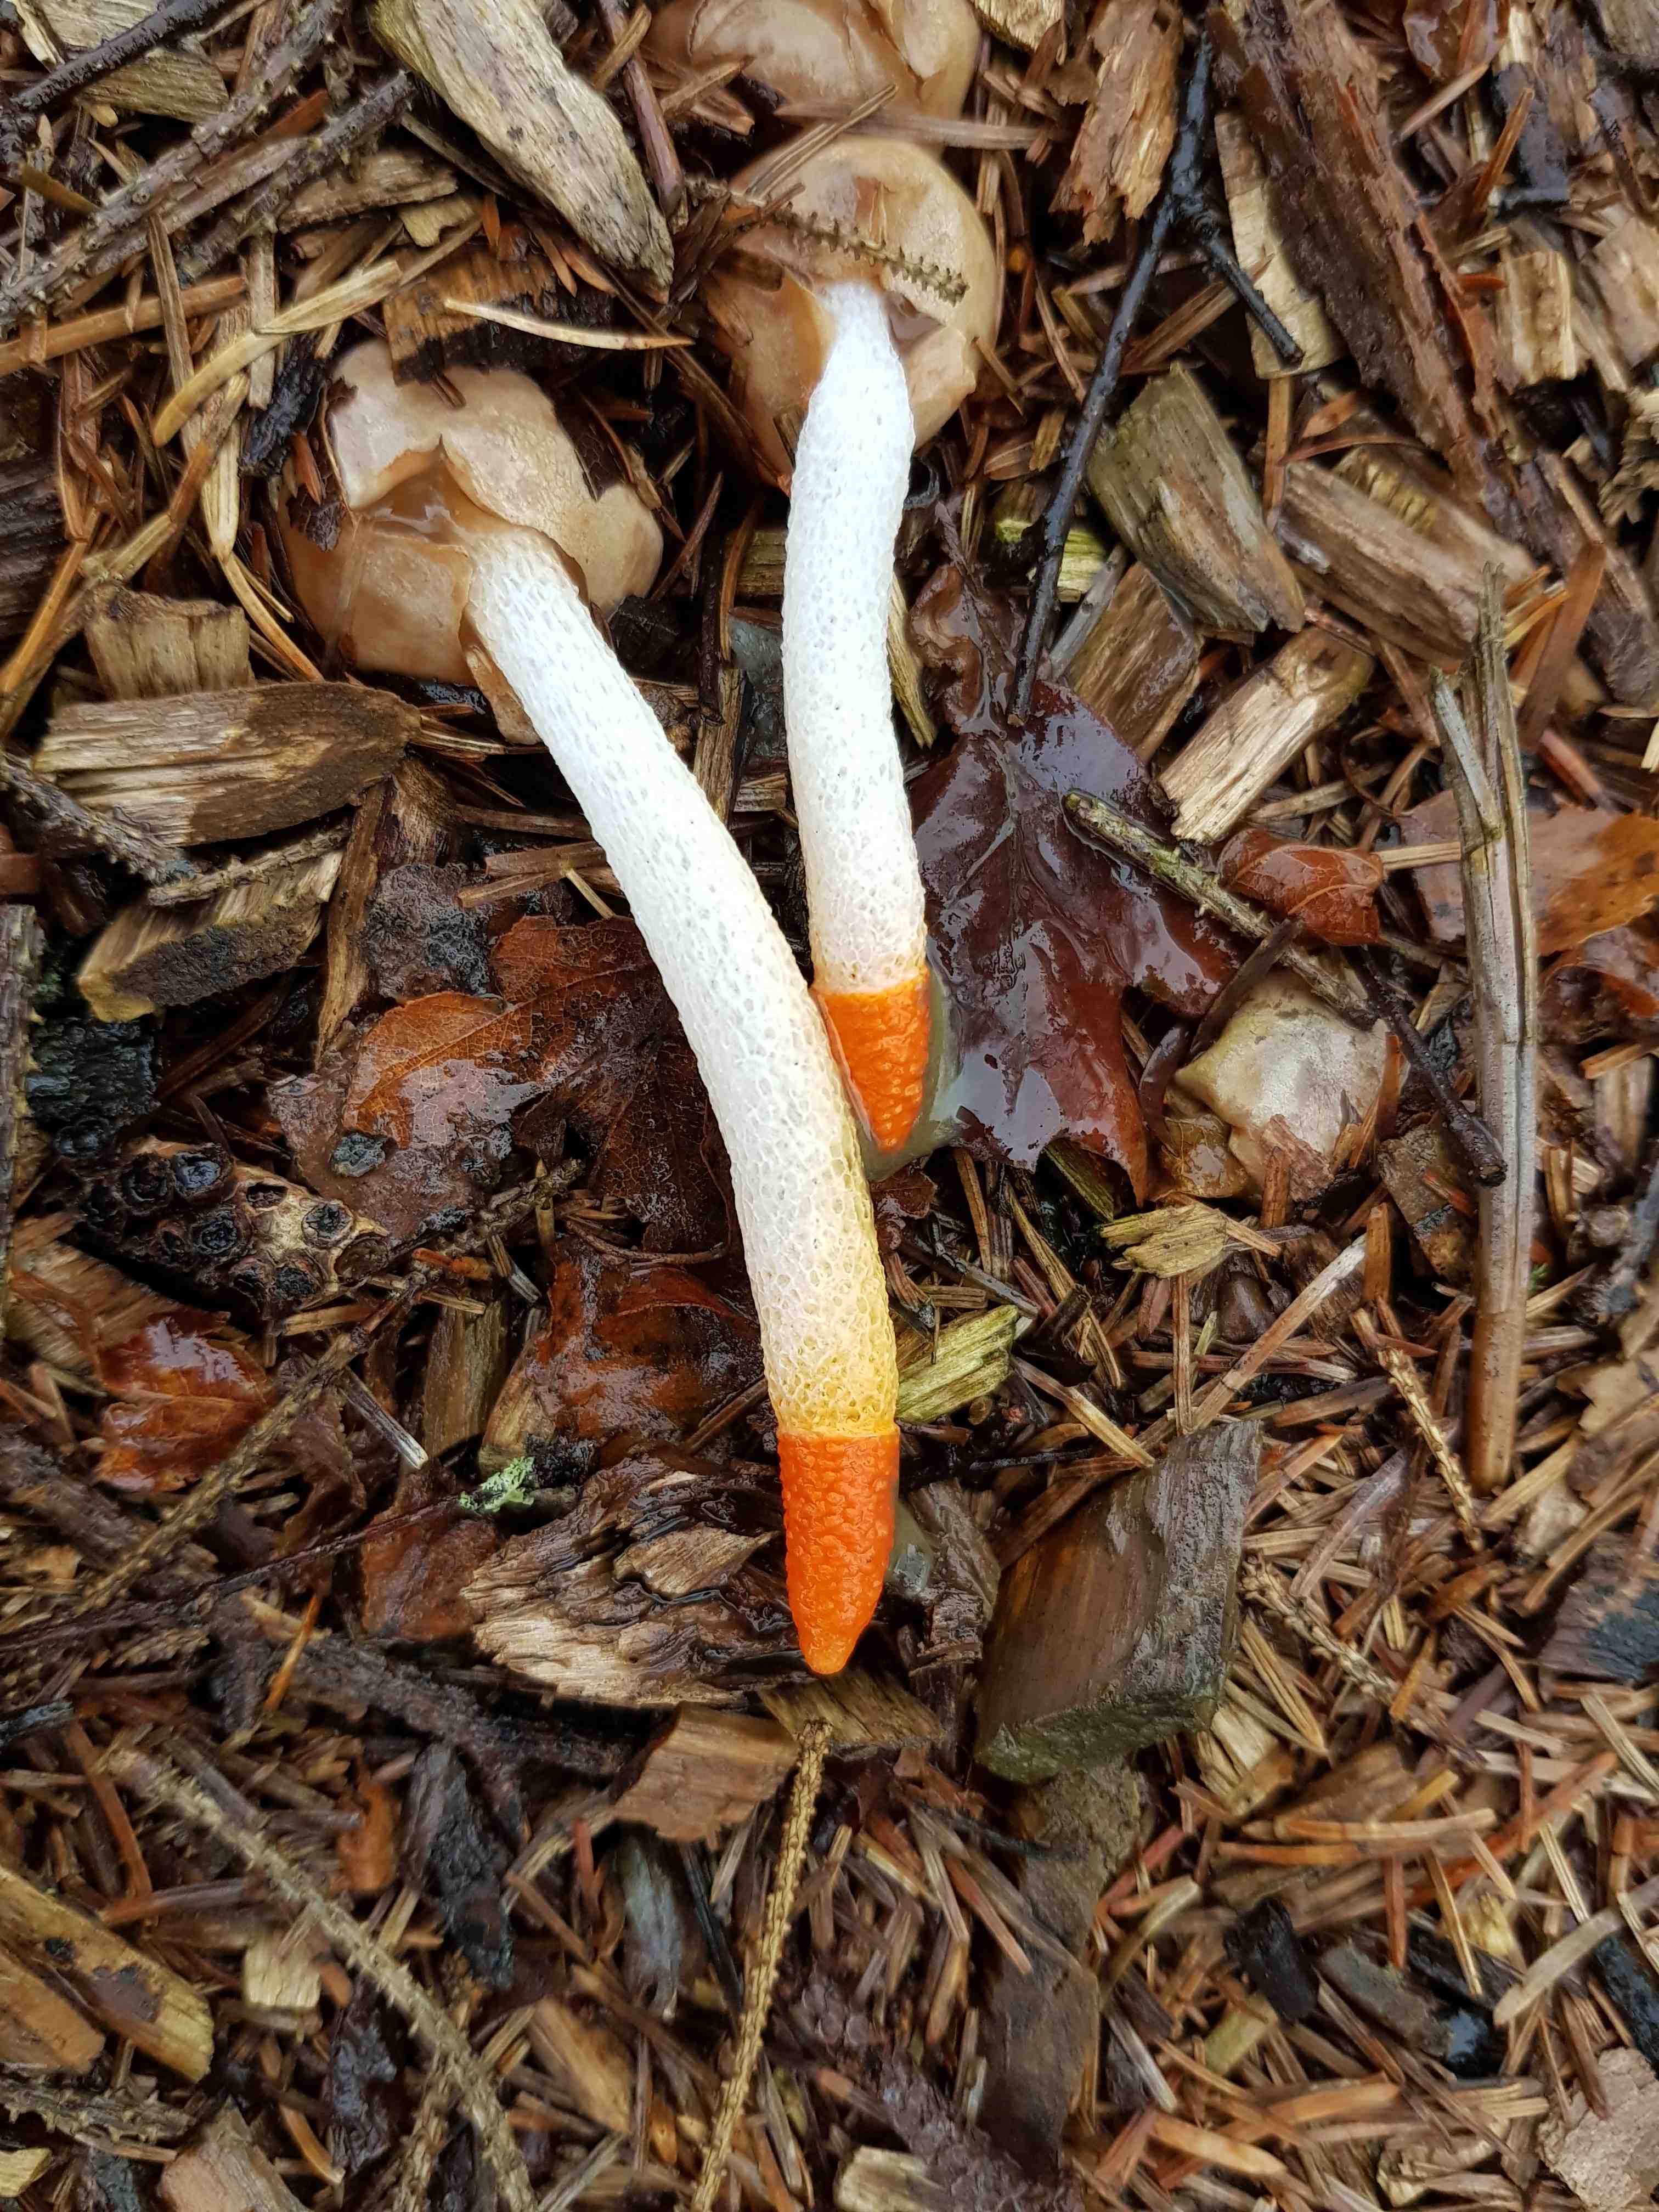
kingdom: Fungi
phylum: Basidiomycota
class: Agaricomycetes
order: Phallales
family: Phallaceae
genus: Mutinus
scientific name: Mutinus caninus
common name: hunde-stinksvamp
